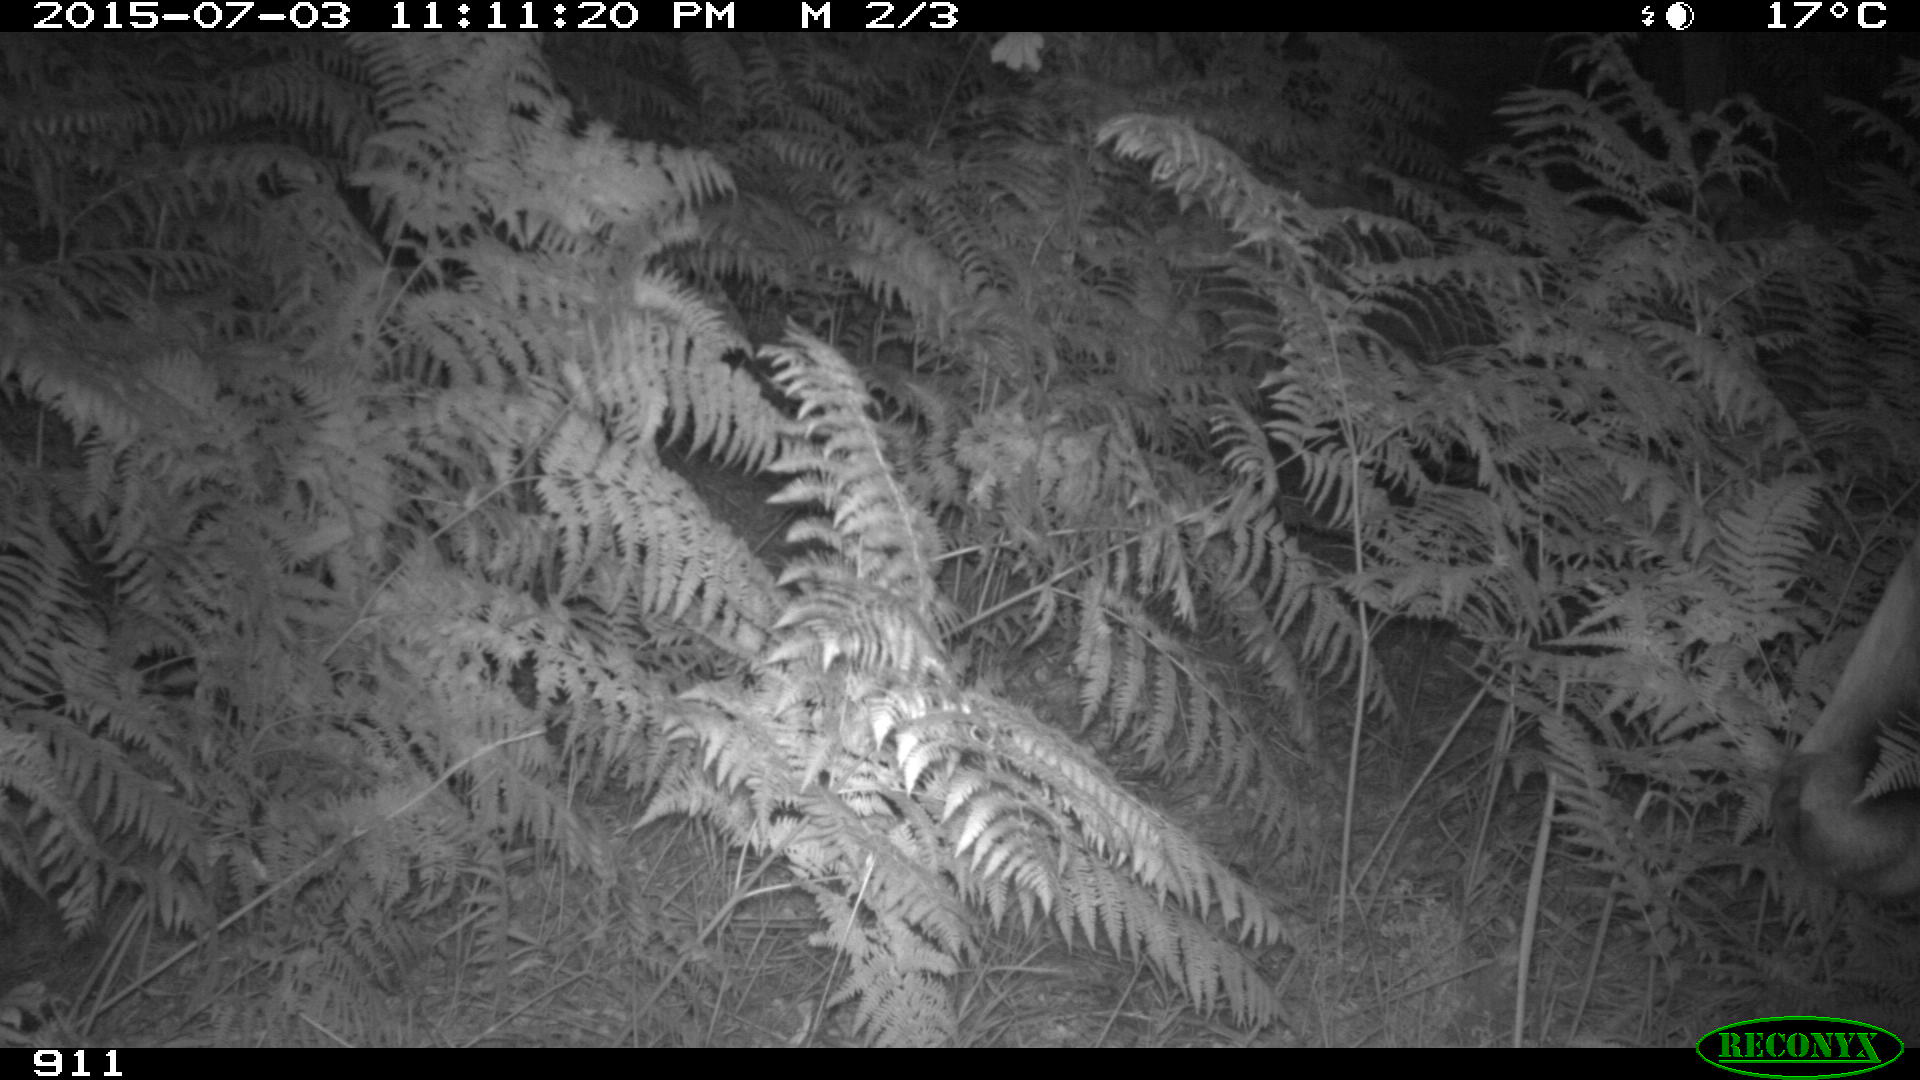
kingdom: Animalia
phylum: Chordata
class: Mammalia
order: Artiodactyla
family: Bovidae
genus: Bos
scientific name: Bos taurus
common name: Domesticated cattle
